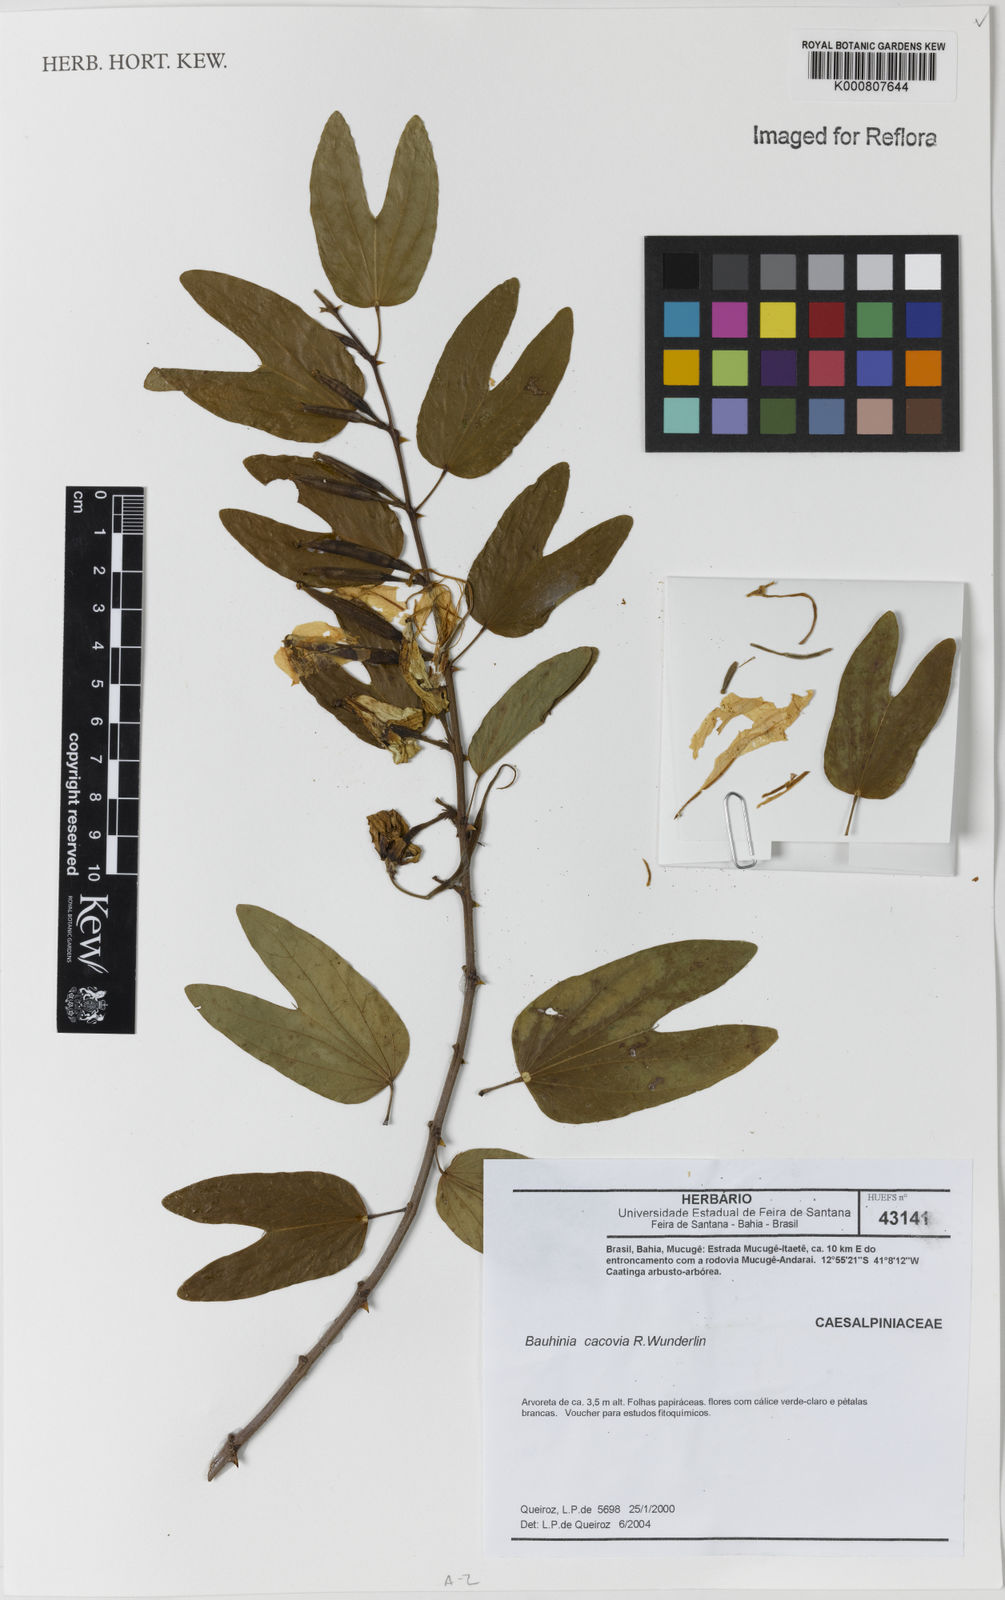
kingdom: Plantae
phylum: Tracheophyta
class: Magnoliopsida
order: Fabales
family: Fabaceae
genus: Bauhinia
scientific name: Bauhinia
